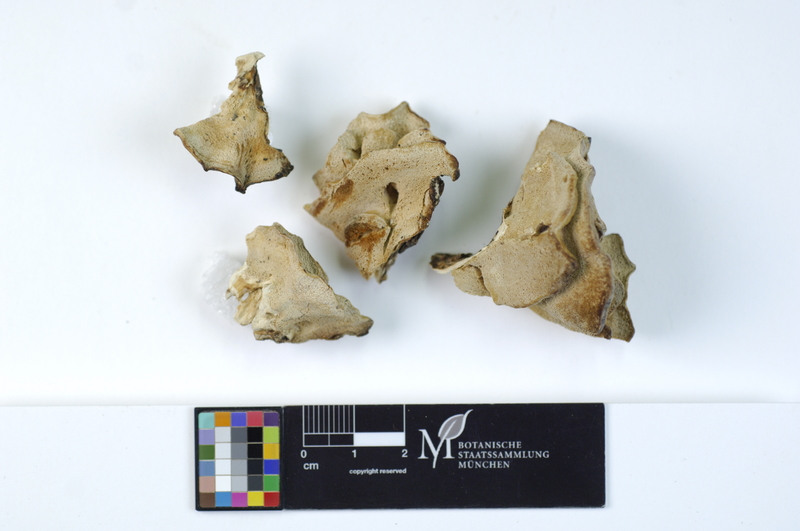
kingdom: Plantae
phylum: Tracheophyta
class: Pinopsida
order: Pinales
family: Pinaceae
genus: Larix
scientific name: Larix
